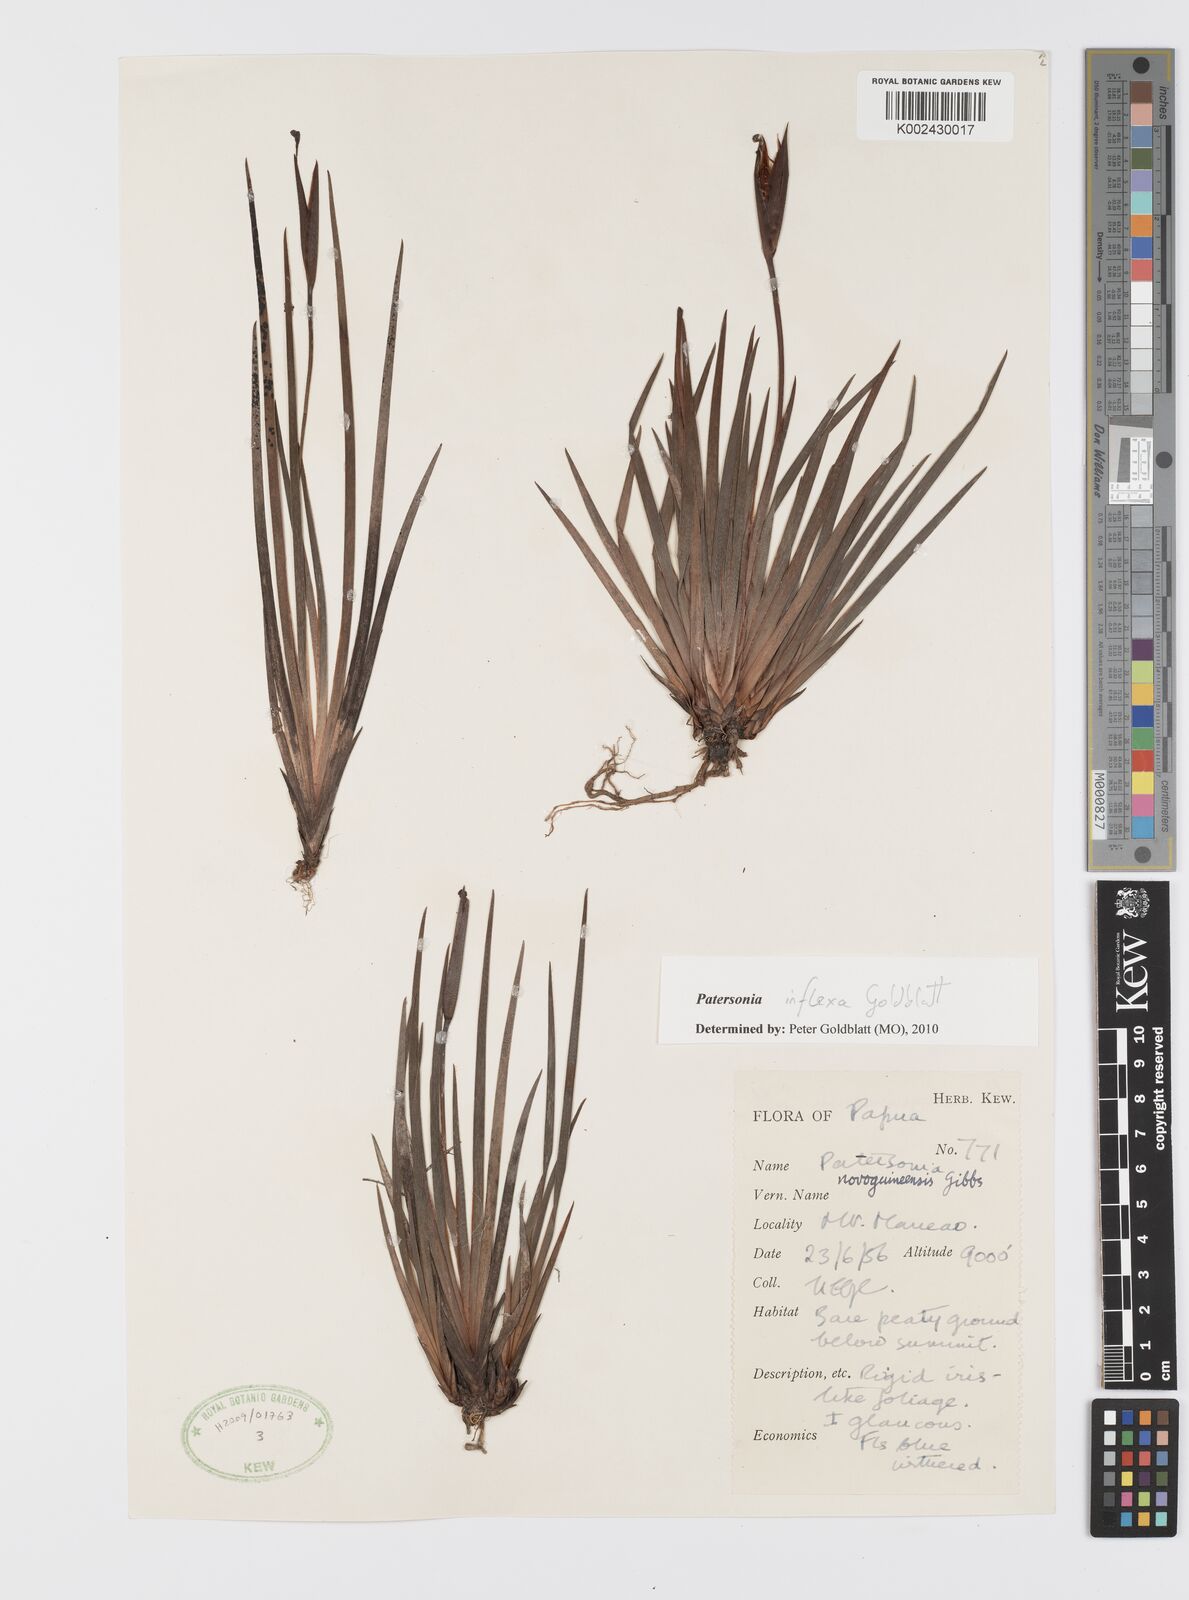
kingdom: Plantae
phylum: Tracheophyta
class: Liliopsida
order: Asparagales
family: Iridaceae
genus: Patersonia
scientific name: Patersonia novoguineensis
